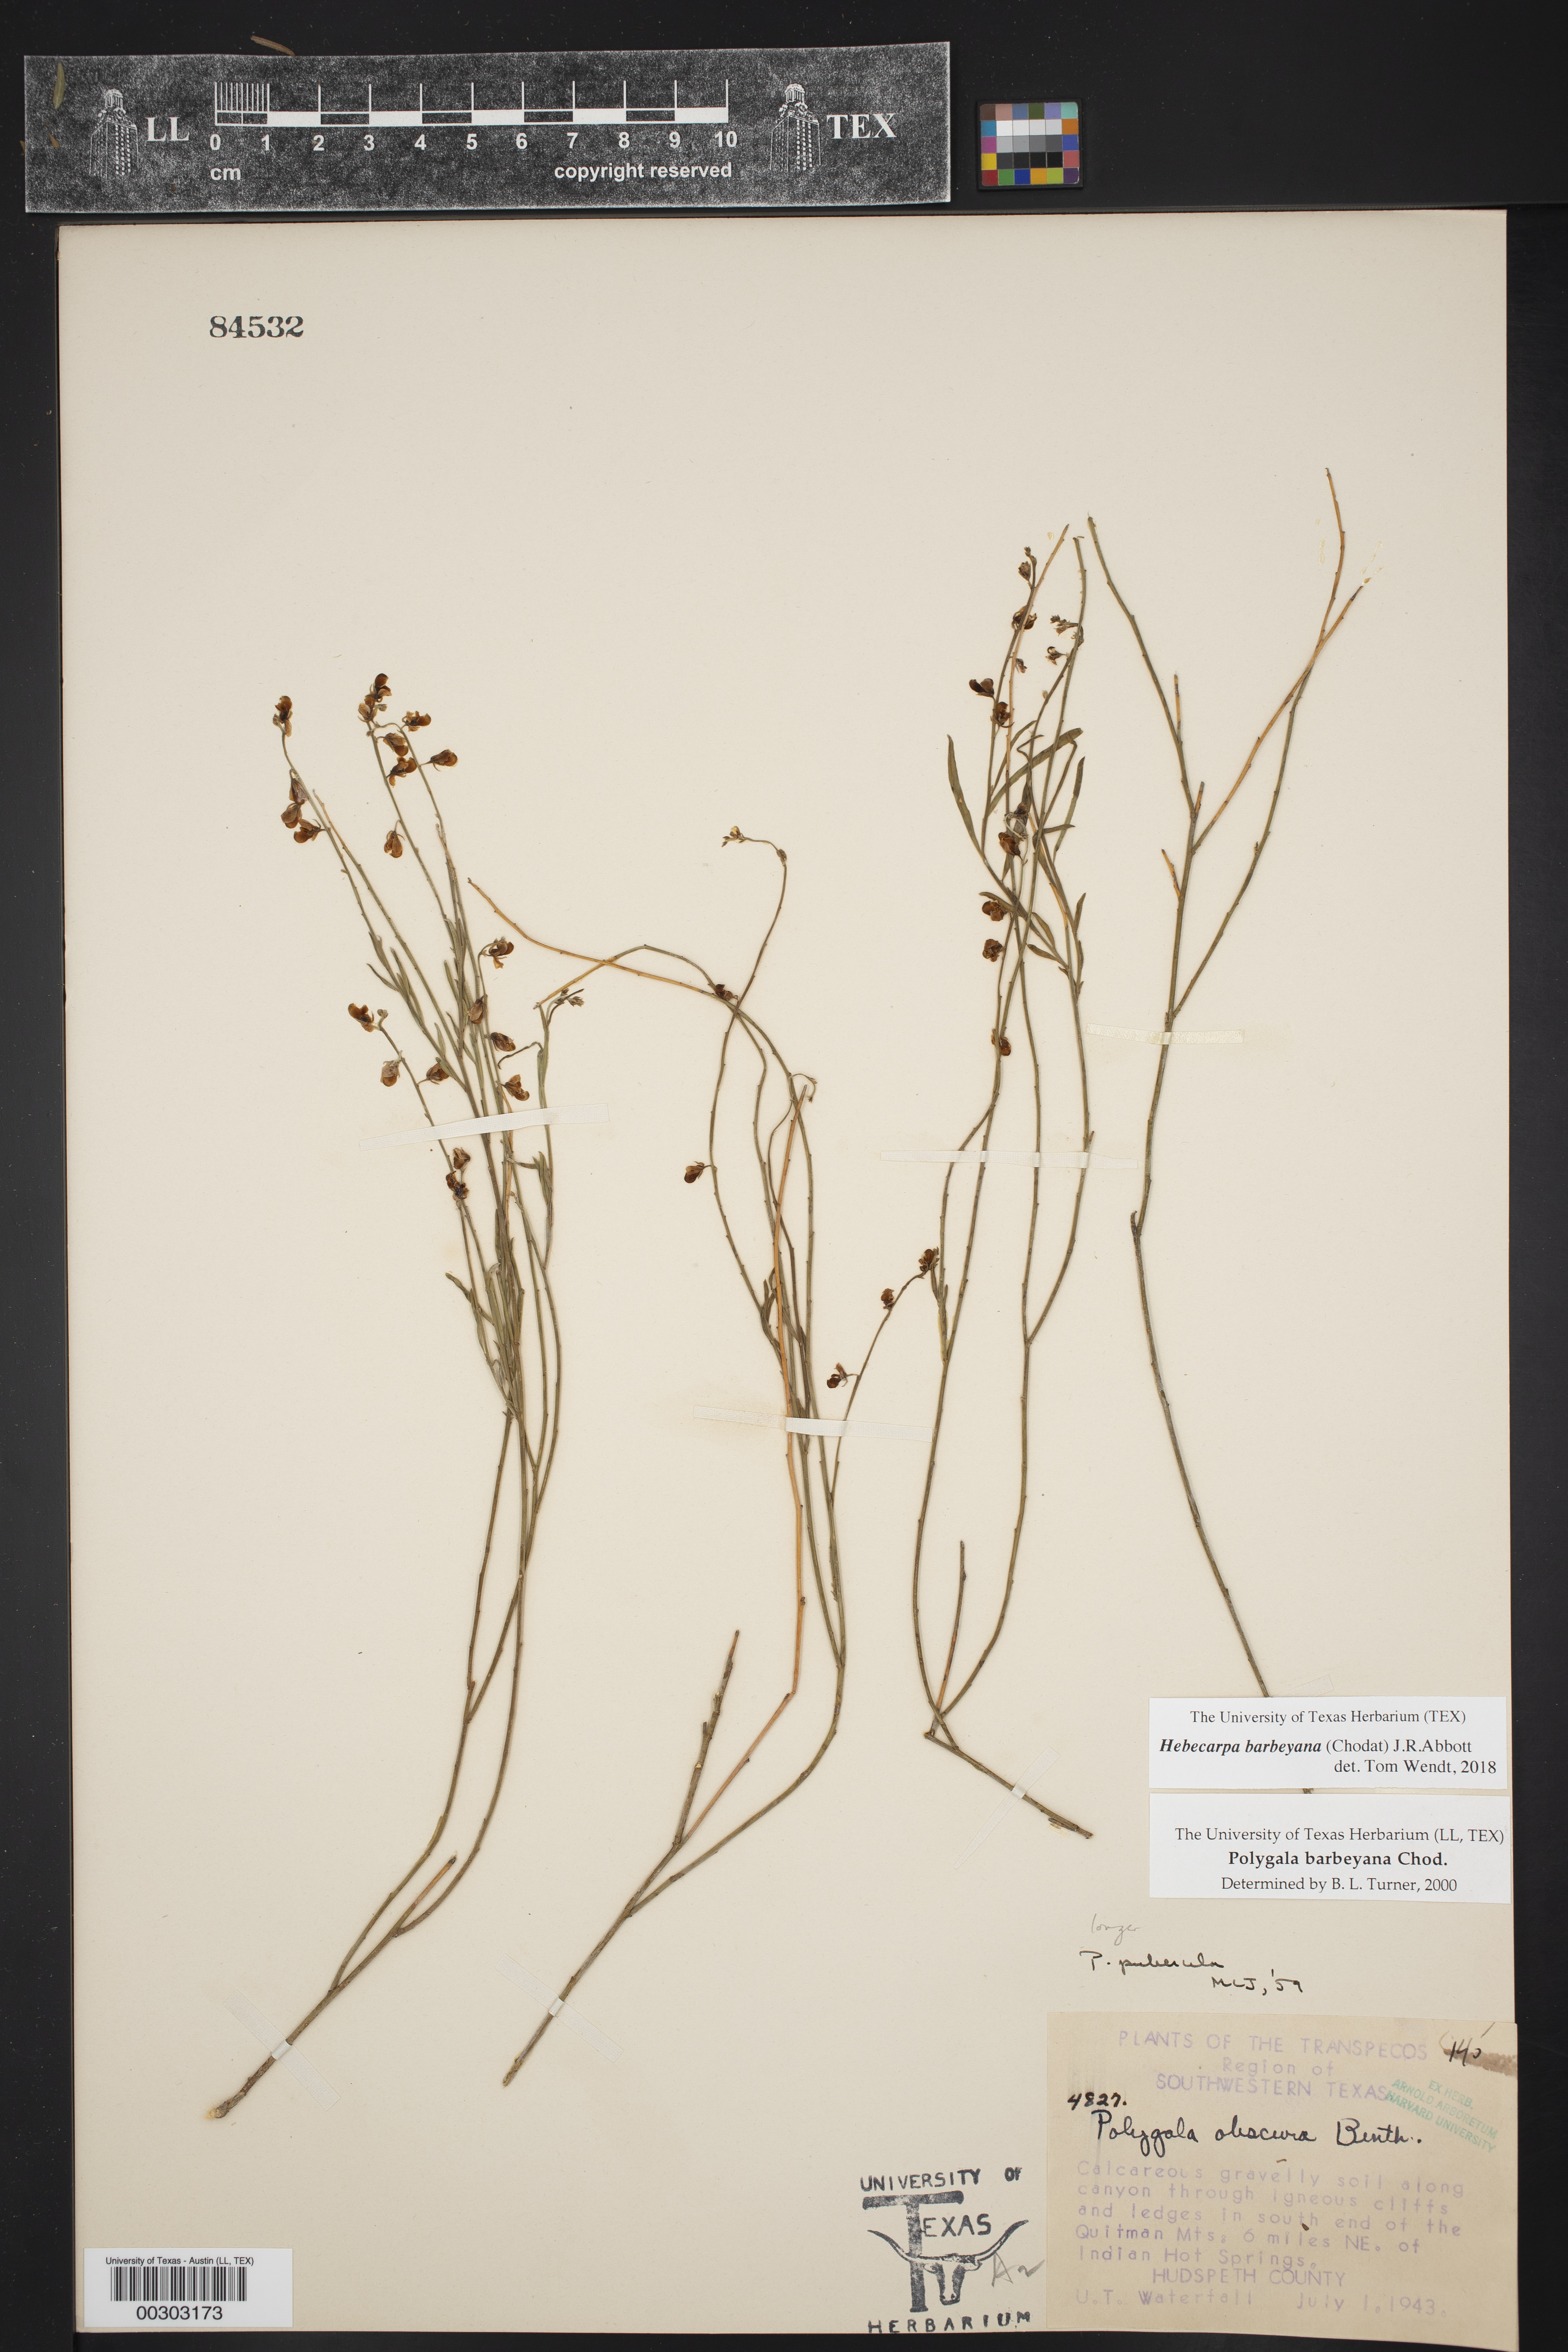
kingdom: Plantae
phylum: Tracheophyta
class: Magnoliopsida
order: Fabales
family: Polygalaceae
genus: Hebecarpa
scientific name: Hebecarpa barbeyana
